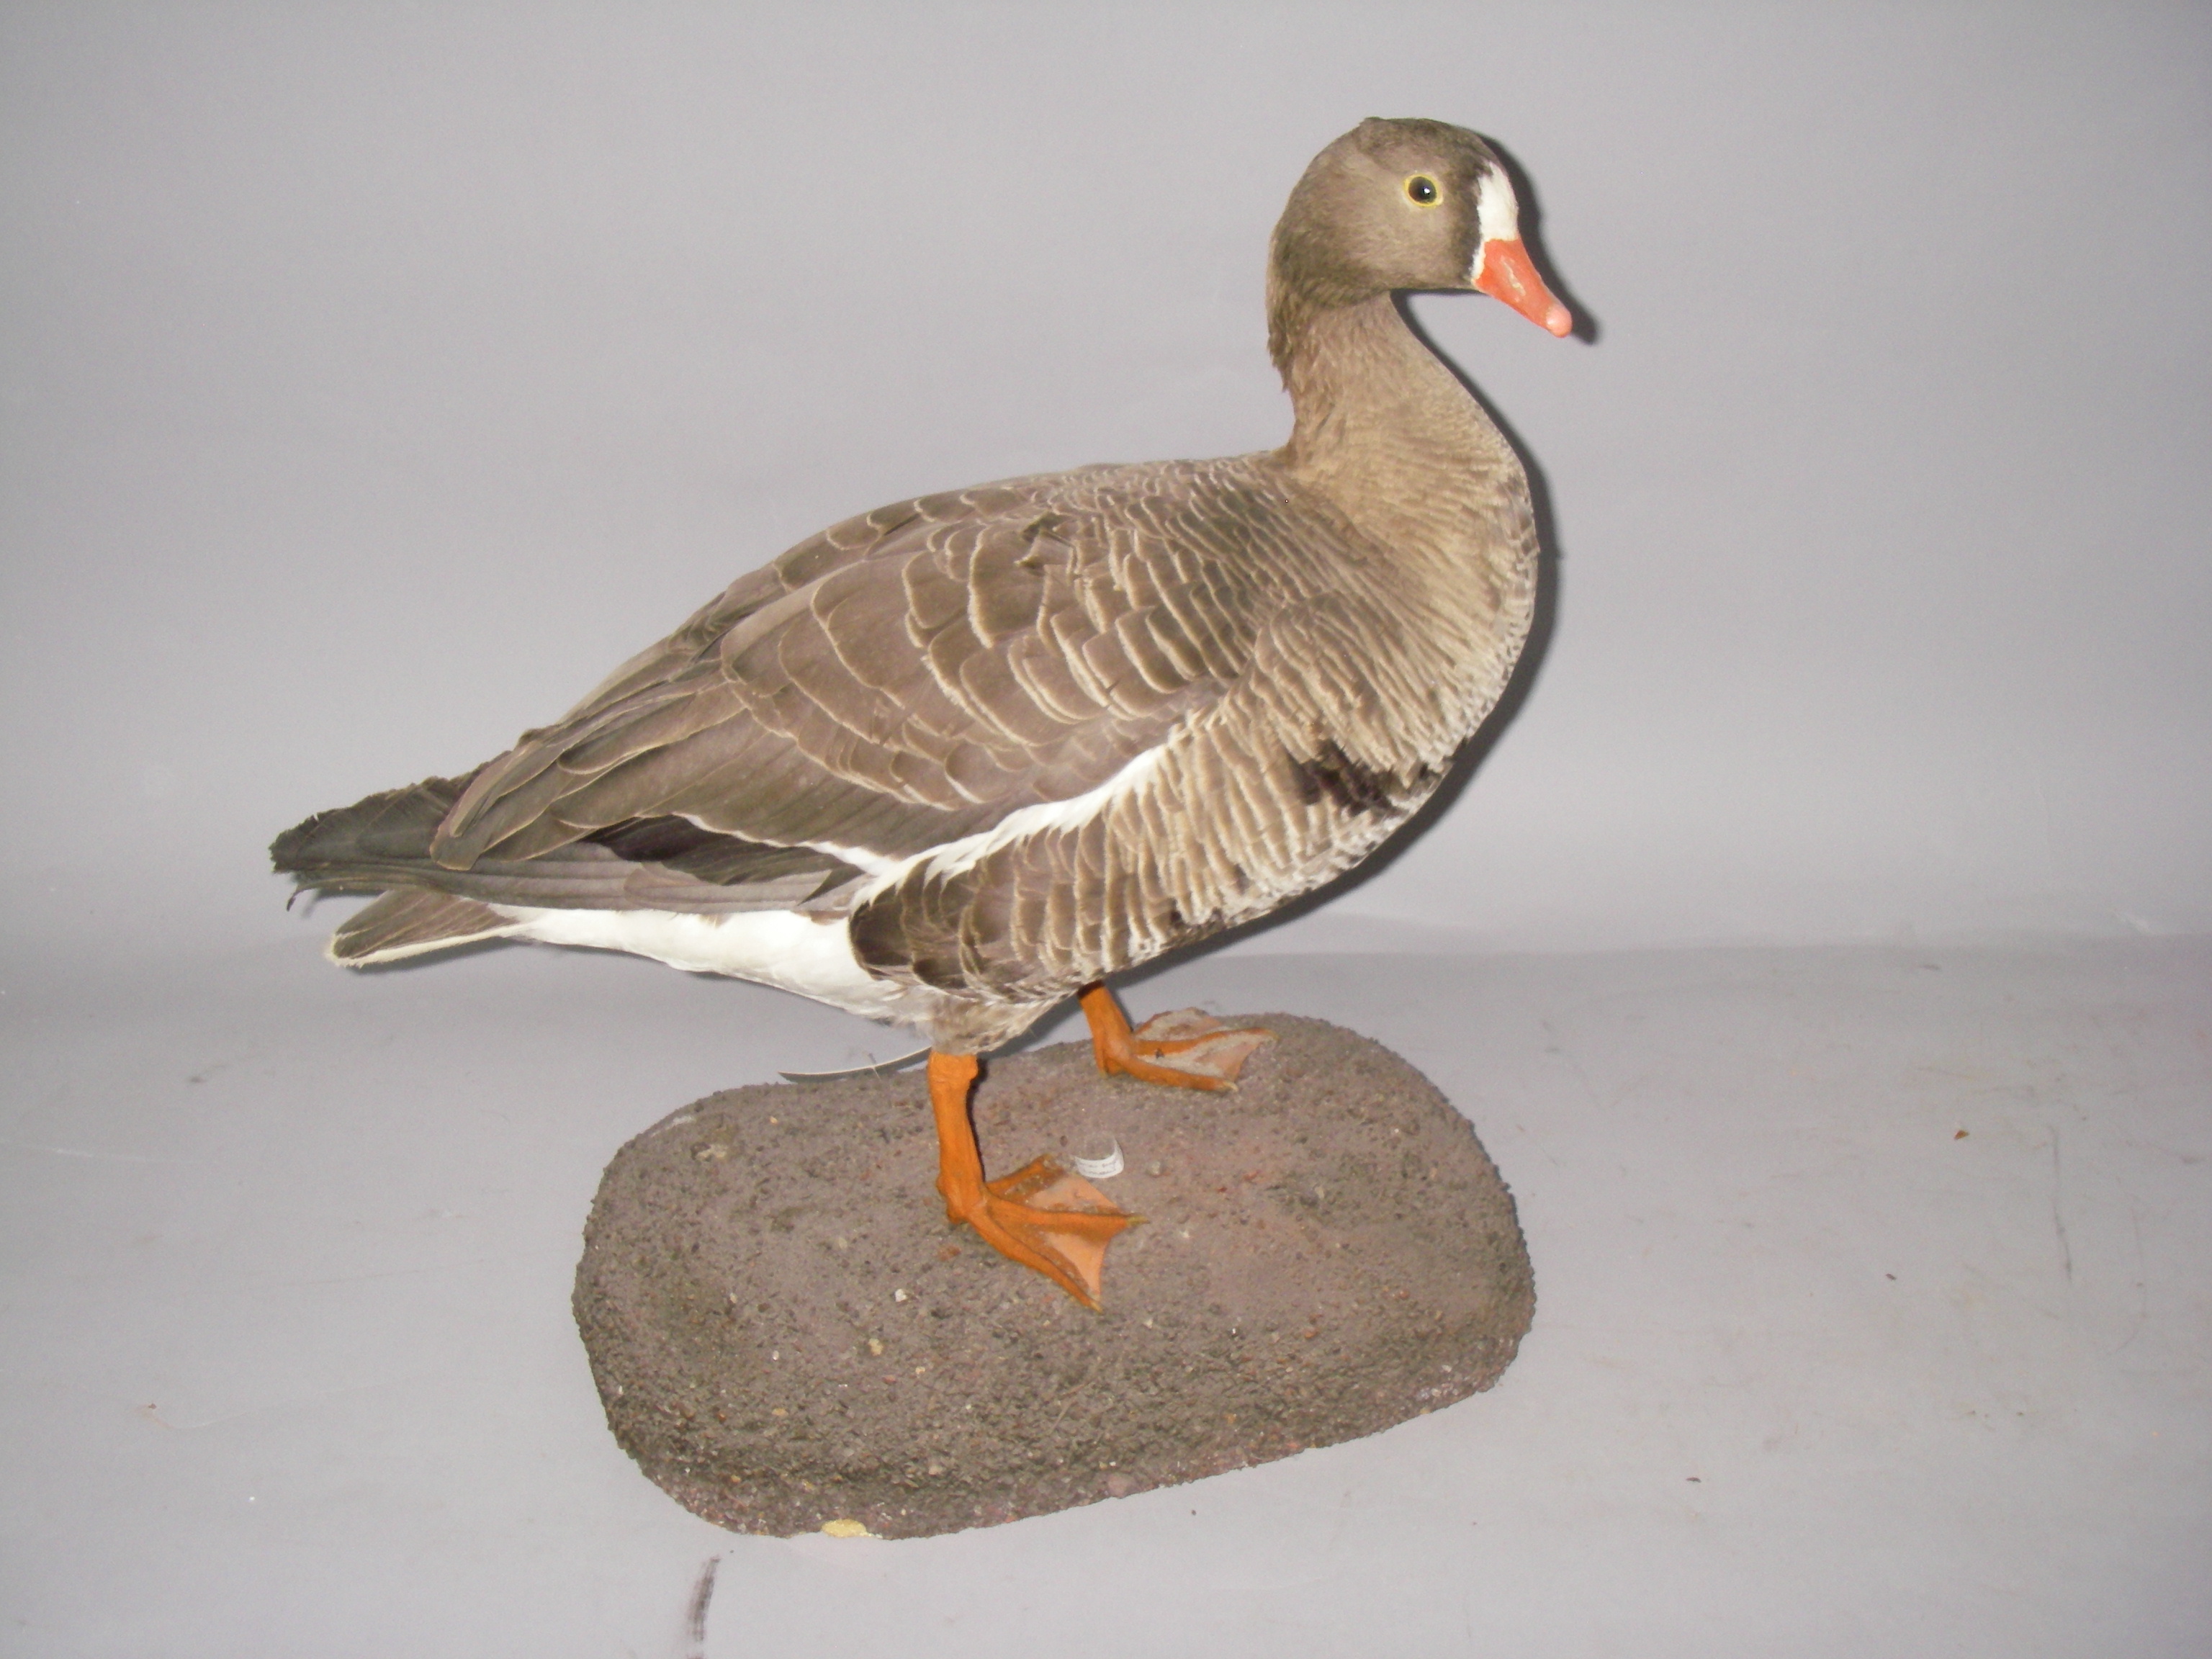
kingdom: Animalia
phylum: Chordata
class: Aves
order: Anseriformes
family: Anatidae
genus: Anser
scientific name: Anser erythropus
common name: Lesser white-fronted goose
